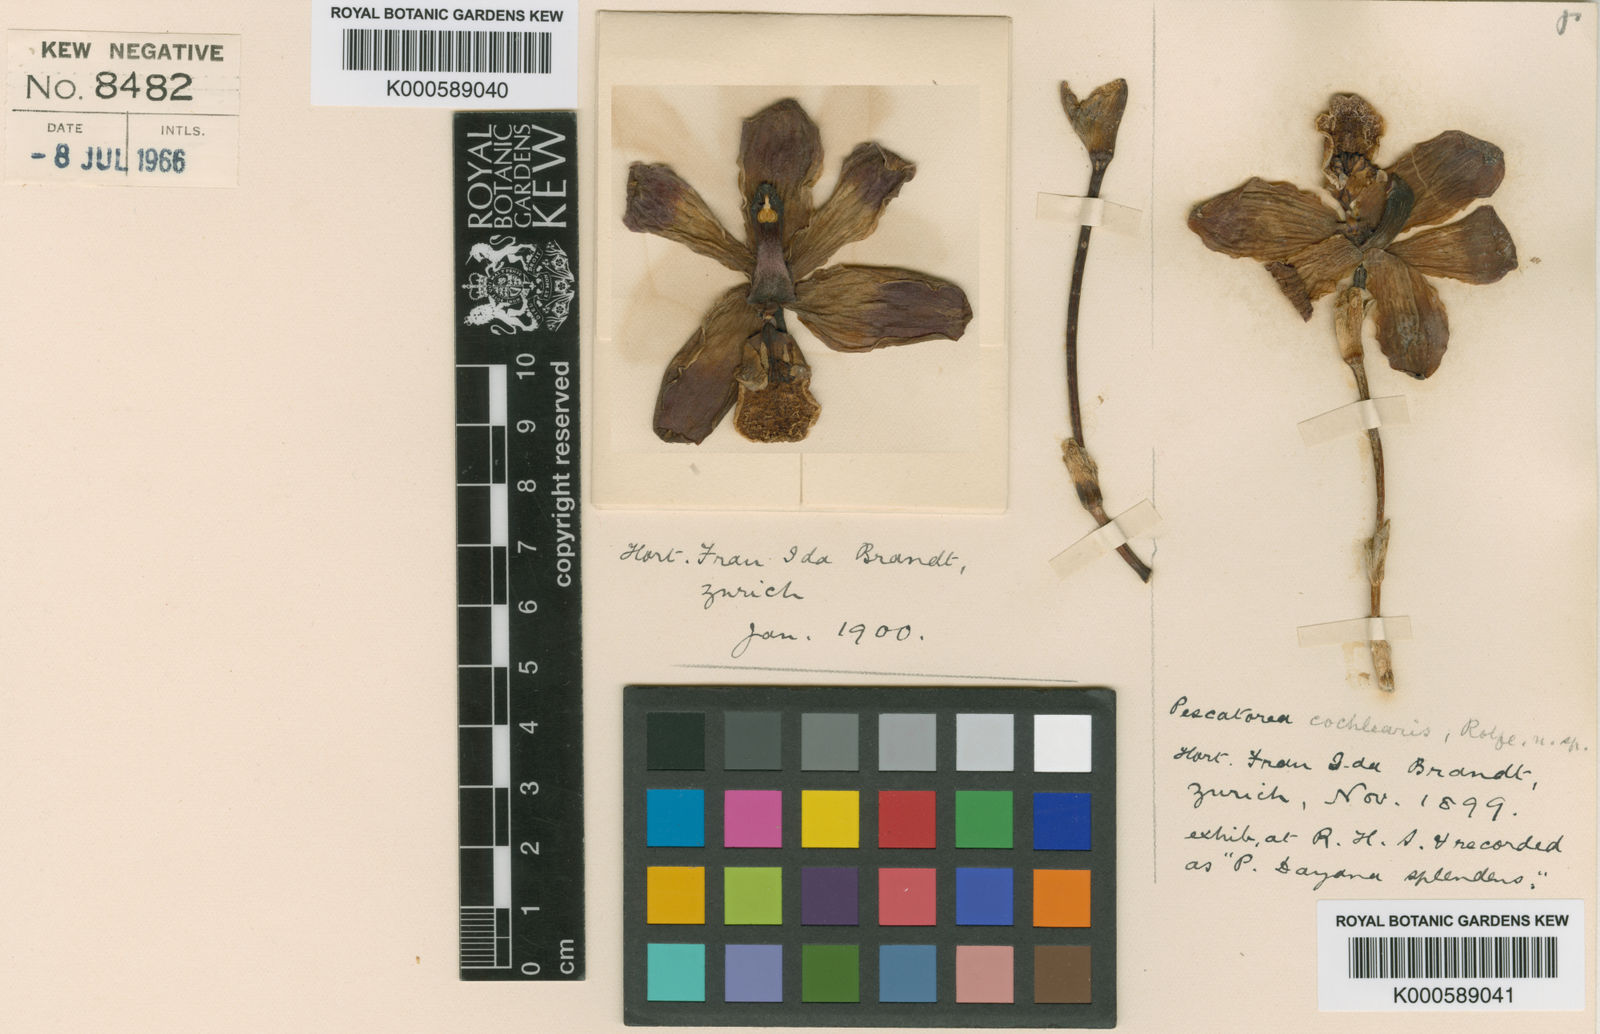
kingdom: Plantae
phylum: Tracheophyta
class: Liliopsida
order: Asparagales
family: Orchidaceae
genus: Pescatoria
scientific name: Pescatoria cochlearis
